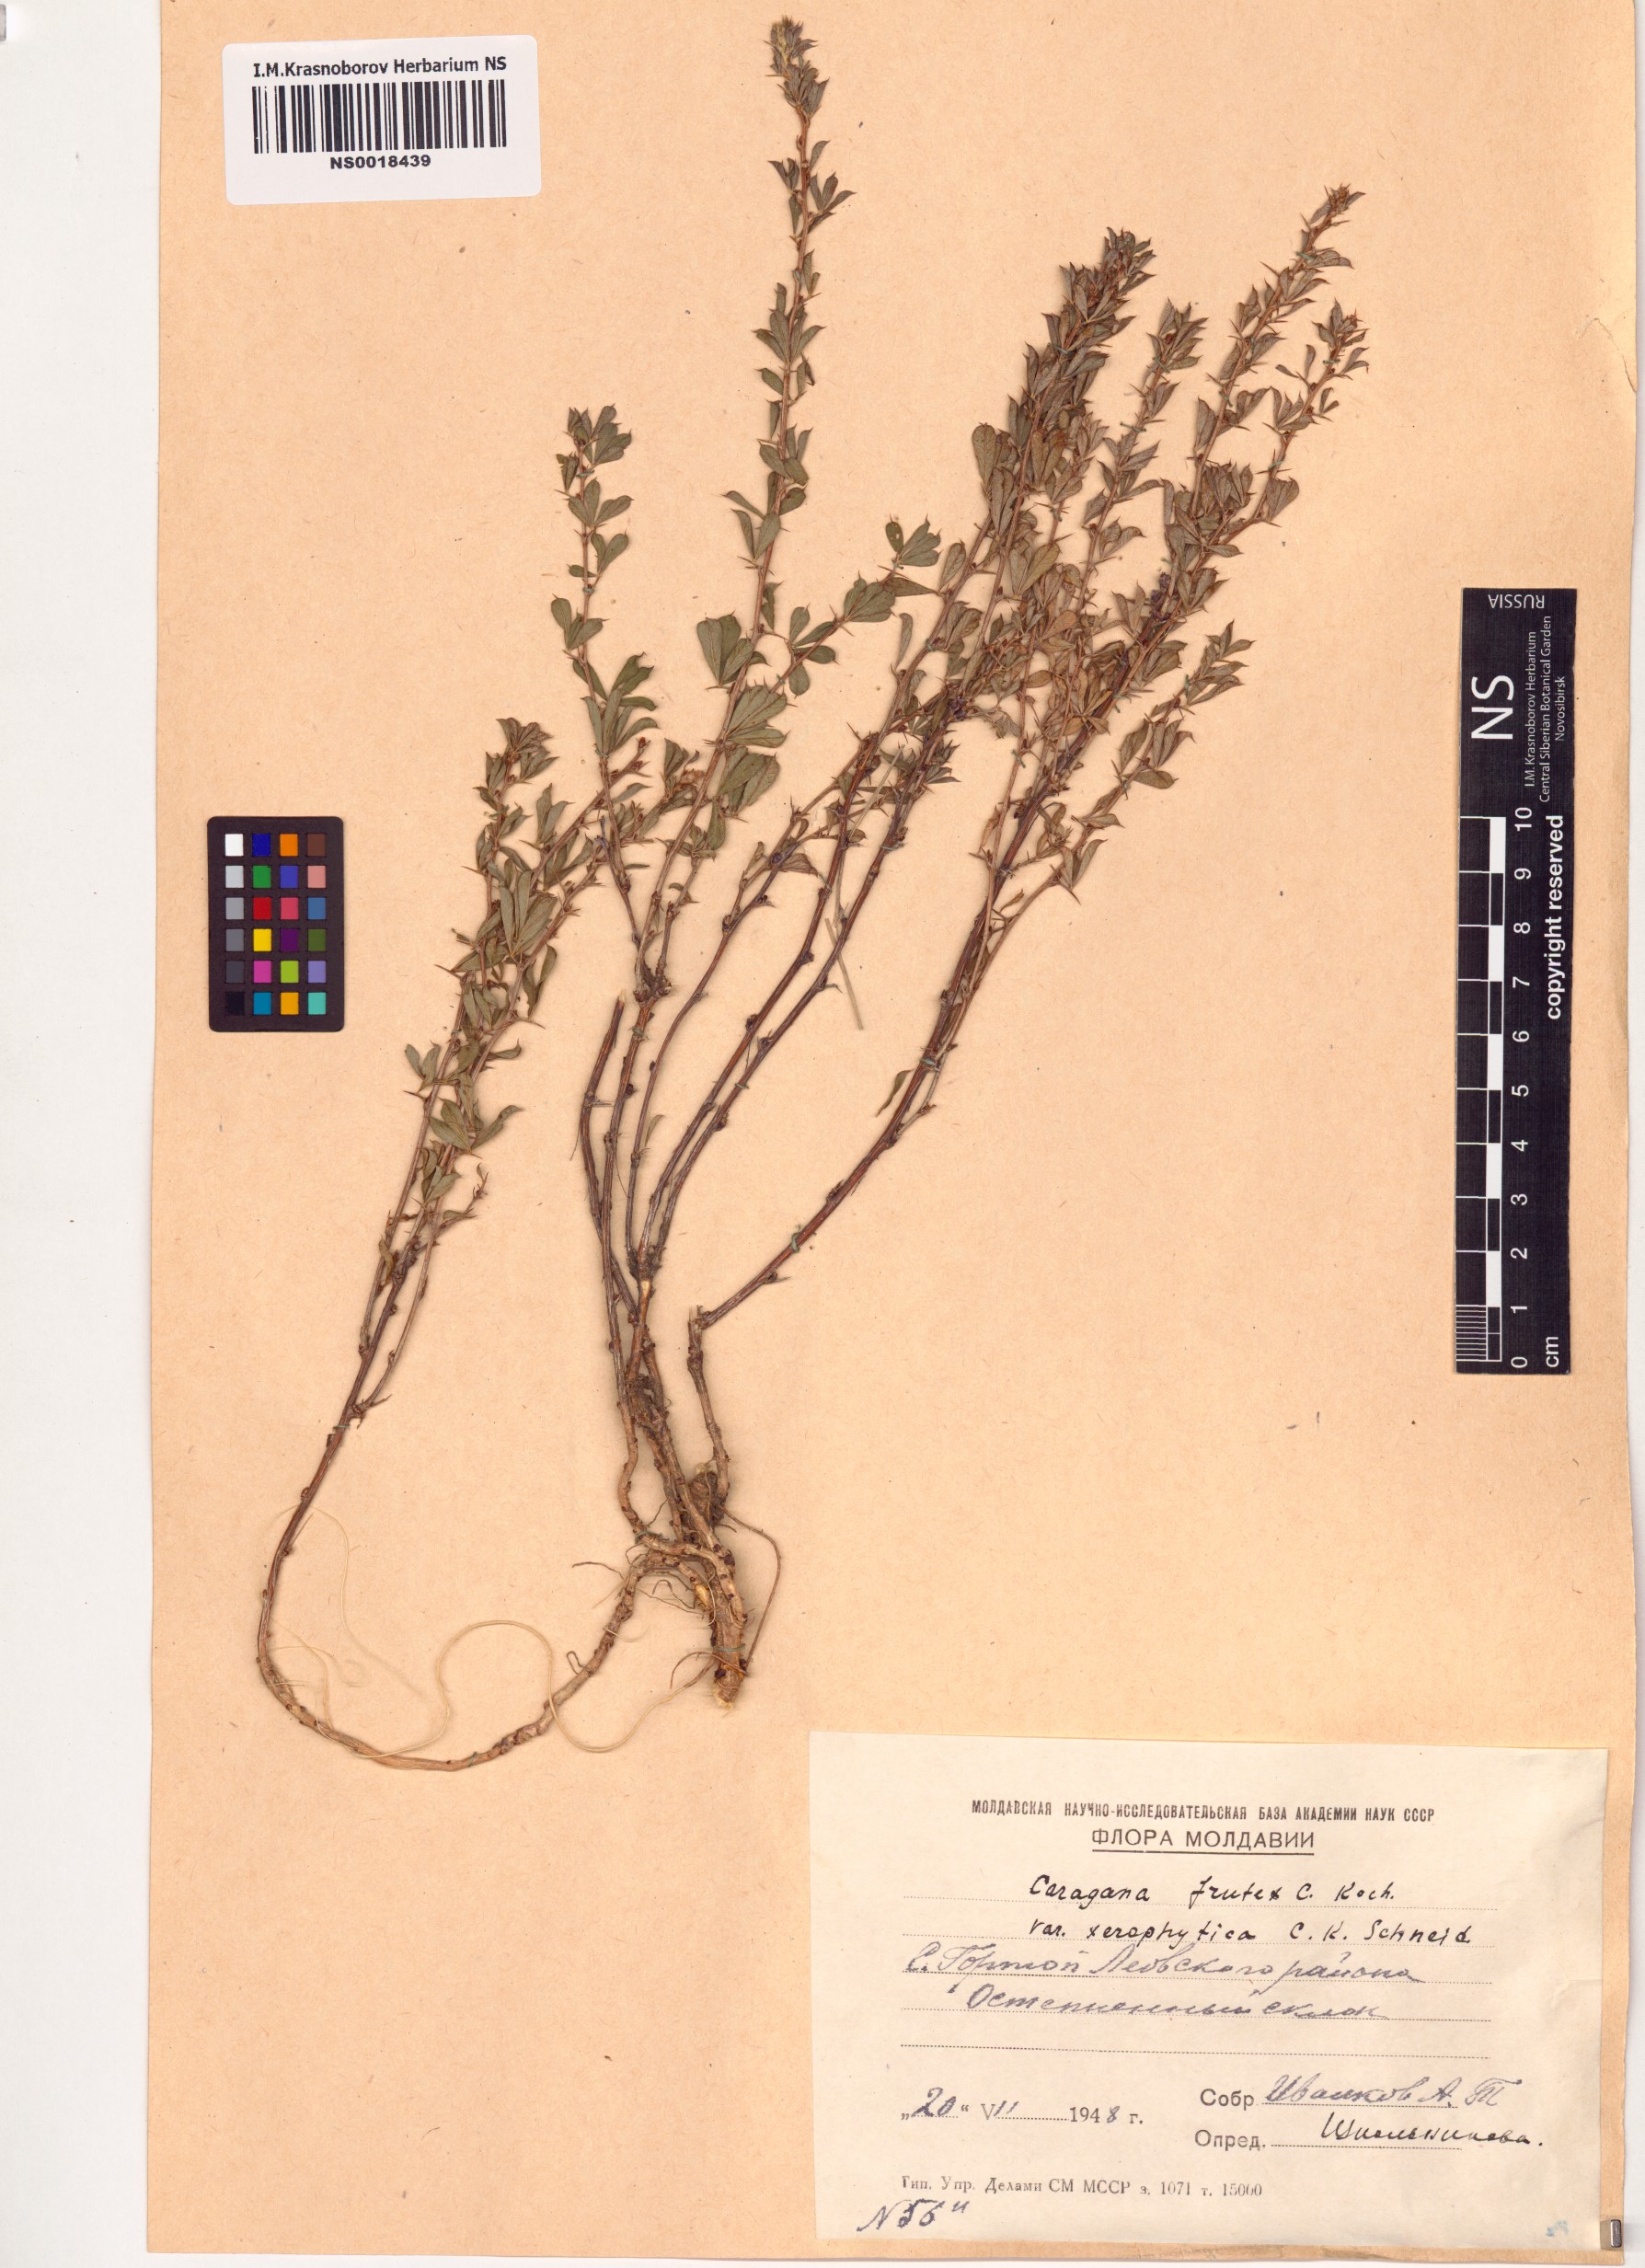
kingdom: Plantae
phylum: Tracheophyta
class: Magnoliopsida
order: Fabales
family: Fabaceae
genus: Caragana
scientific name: Caragana frutex
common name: Russian peashrub
